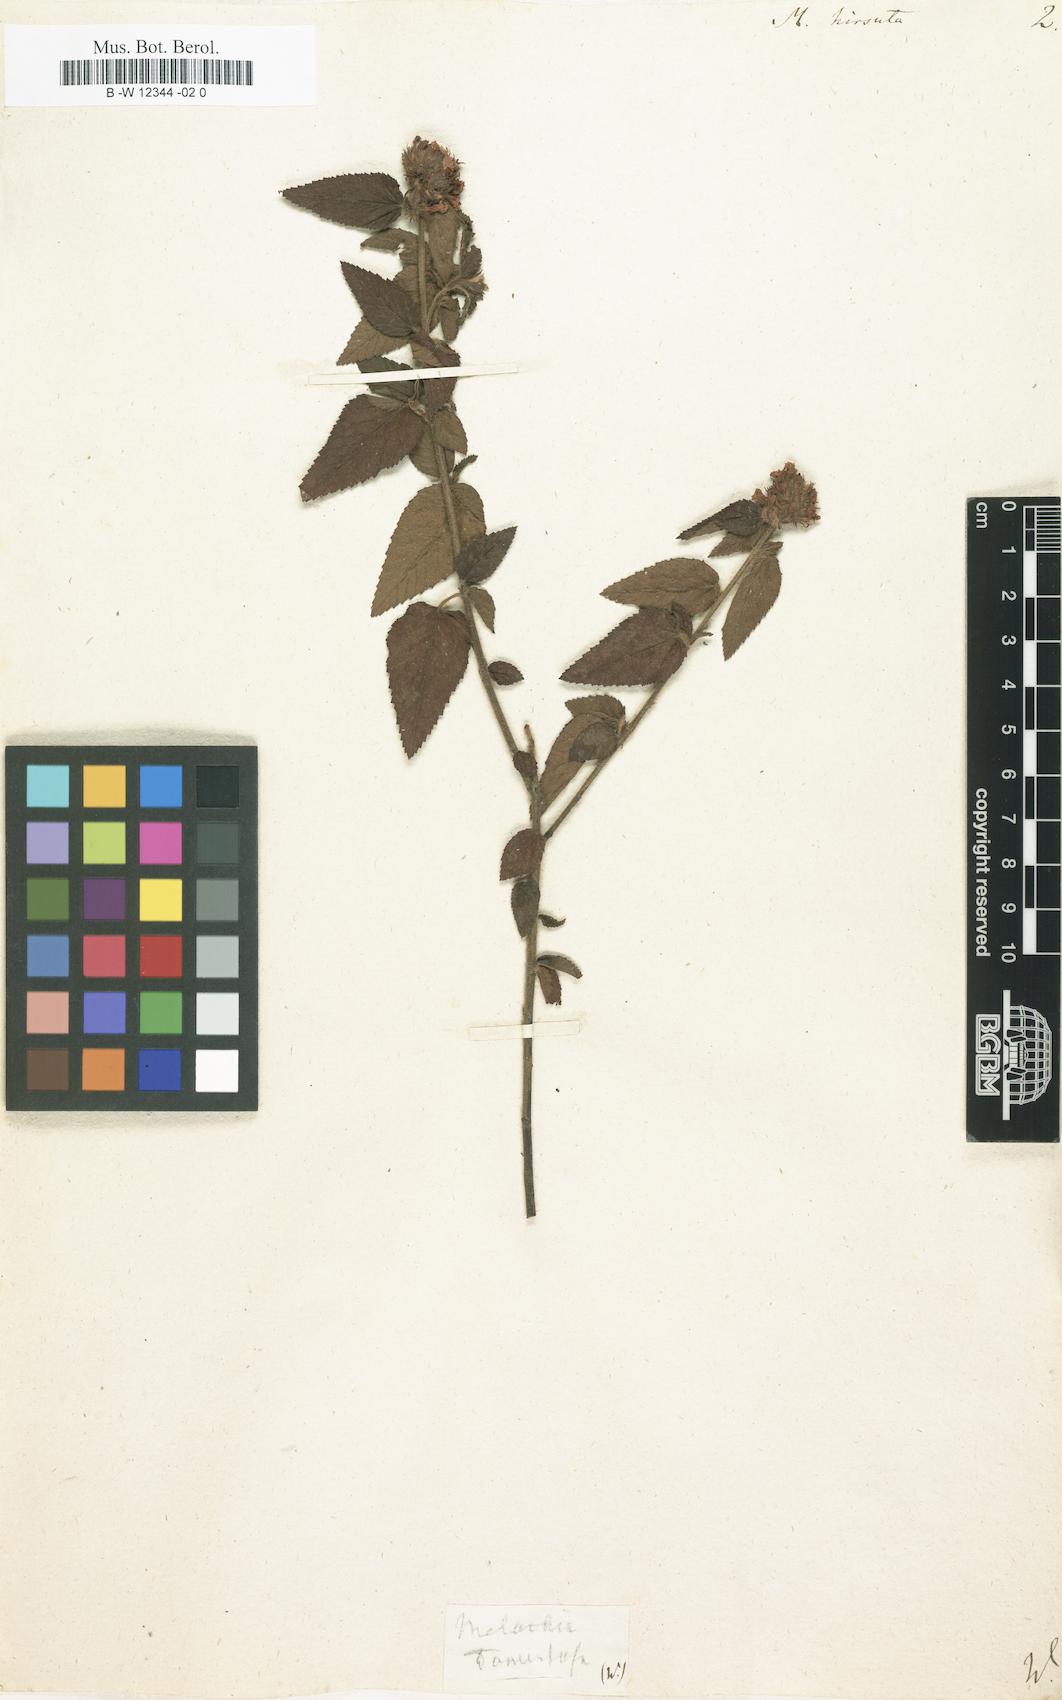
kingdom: Plantae
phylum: Tracheophyta
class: Magnoliopsida
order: Malvales
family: Malvaceae
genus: Melochia
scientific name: Melochia spicata
